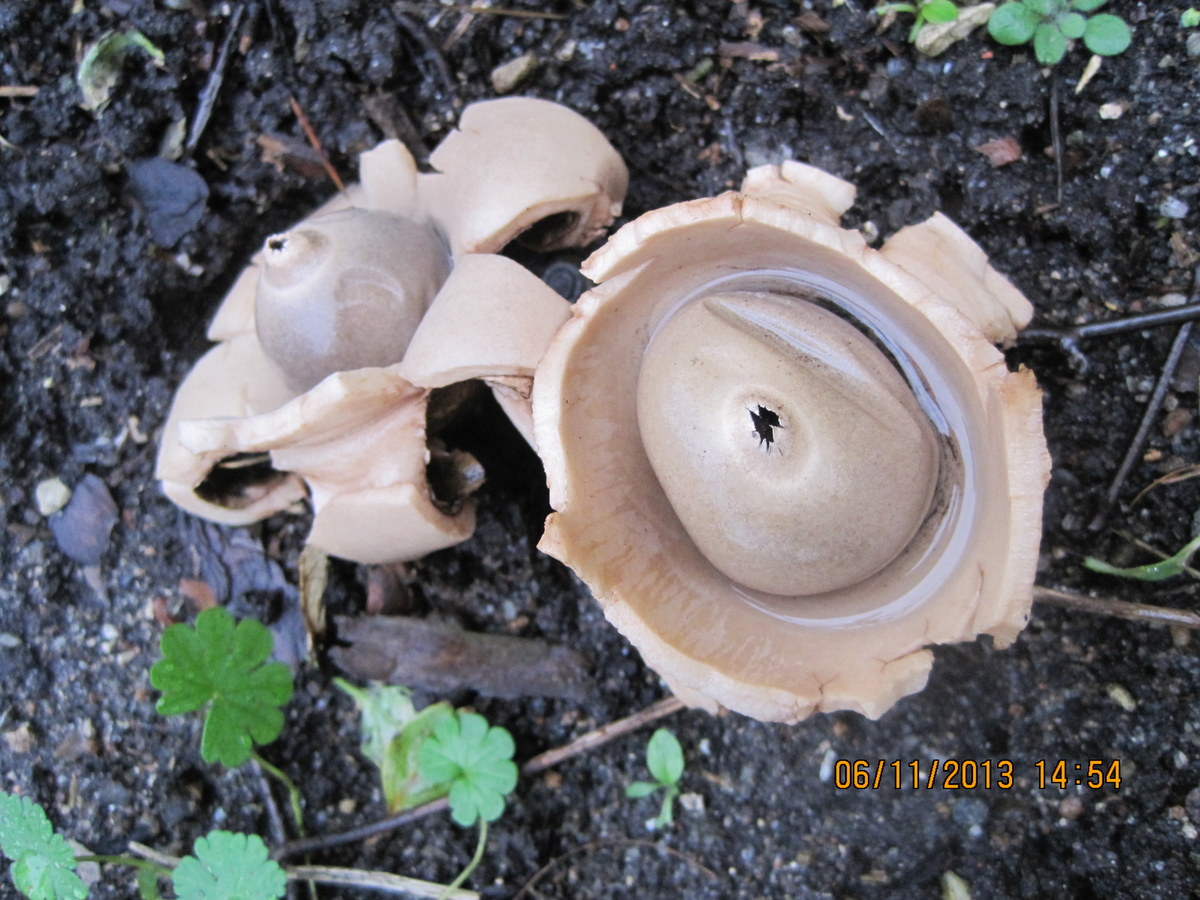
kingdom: Fungi
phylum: Basidiomycota
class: Agaricomycetes
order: Geastrales
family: Geastraceae
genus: Geastrum
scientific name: Geastrum michelianum
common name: kødet stjernebold
